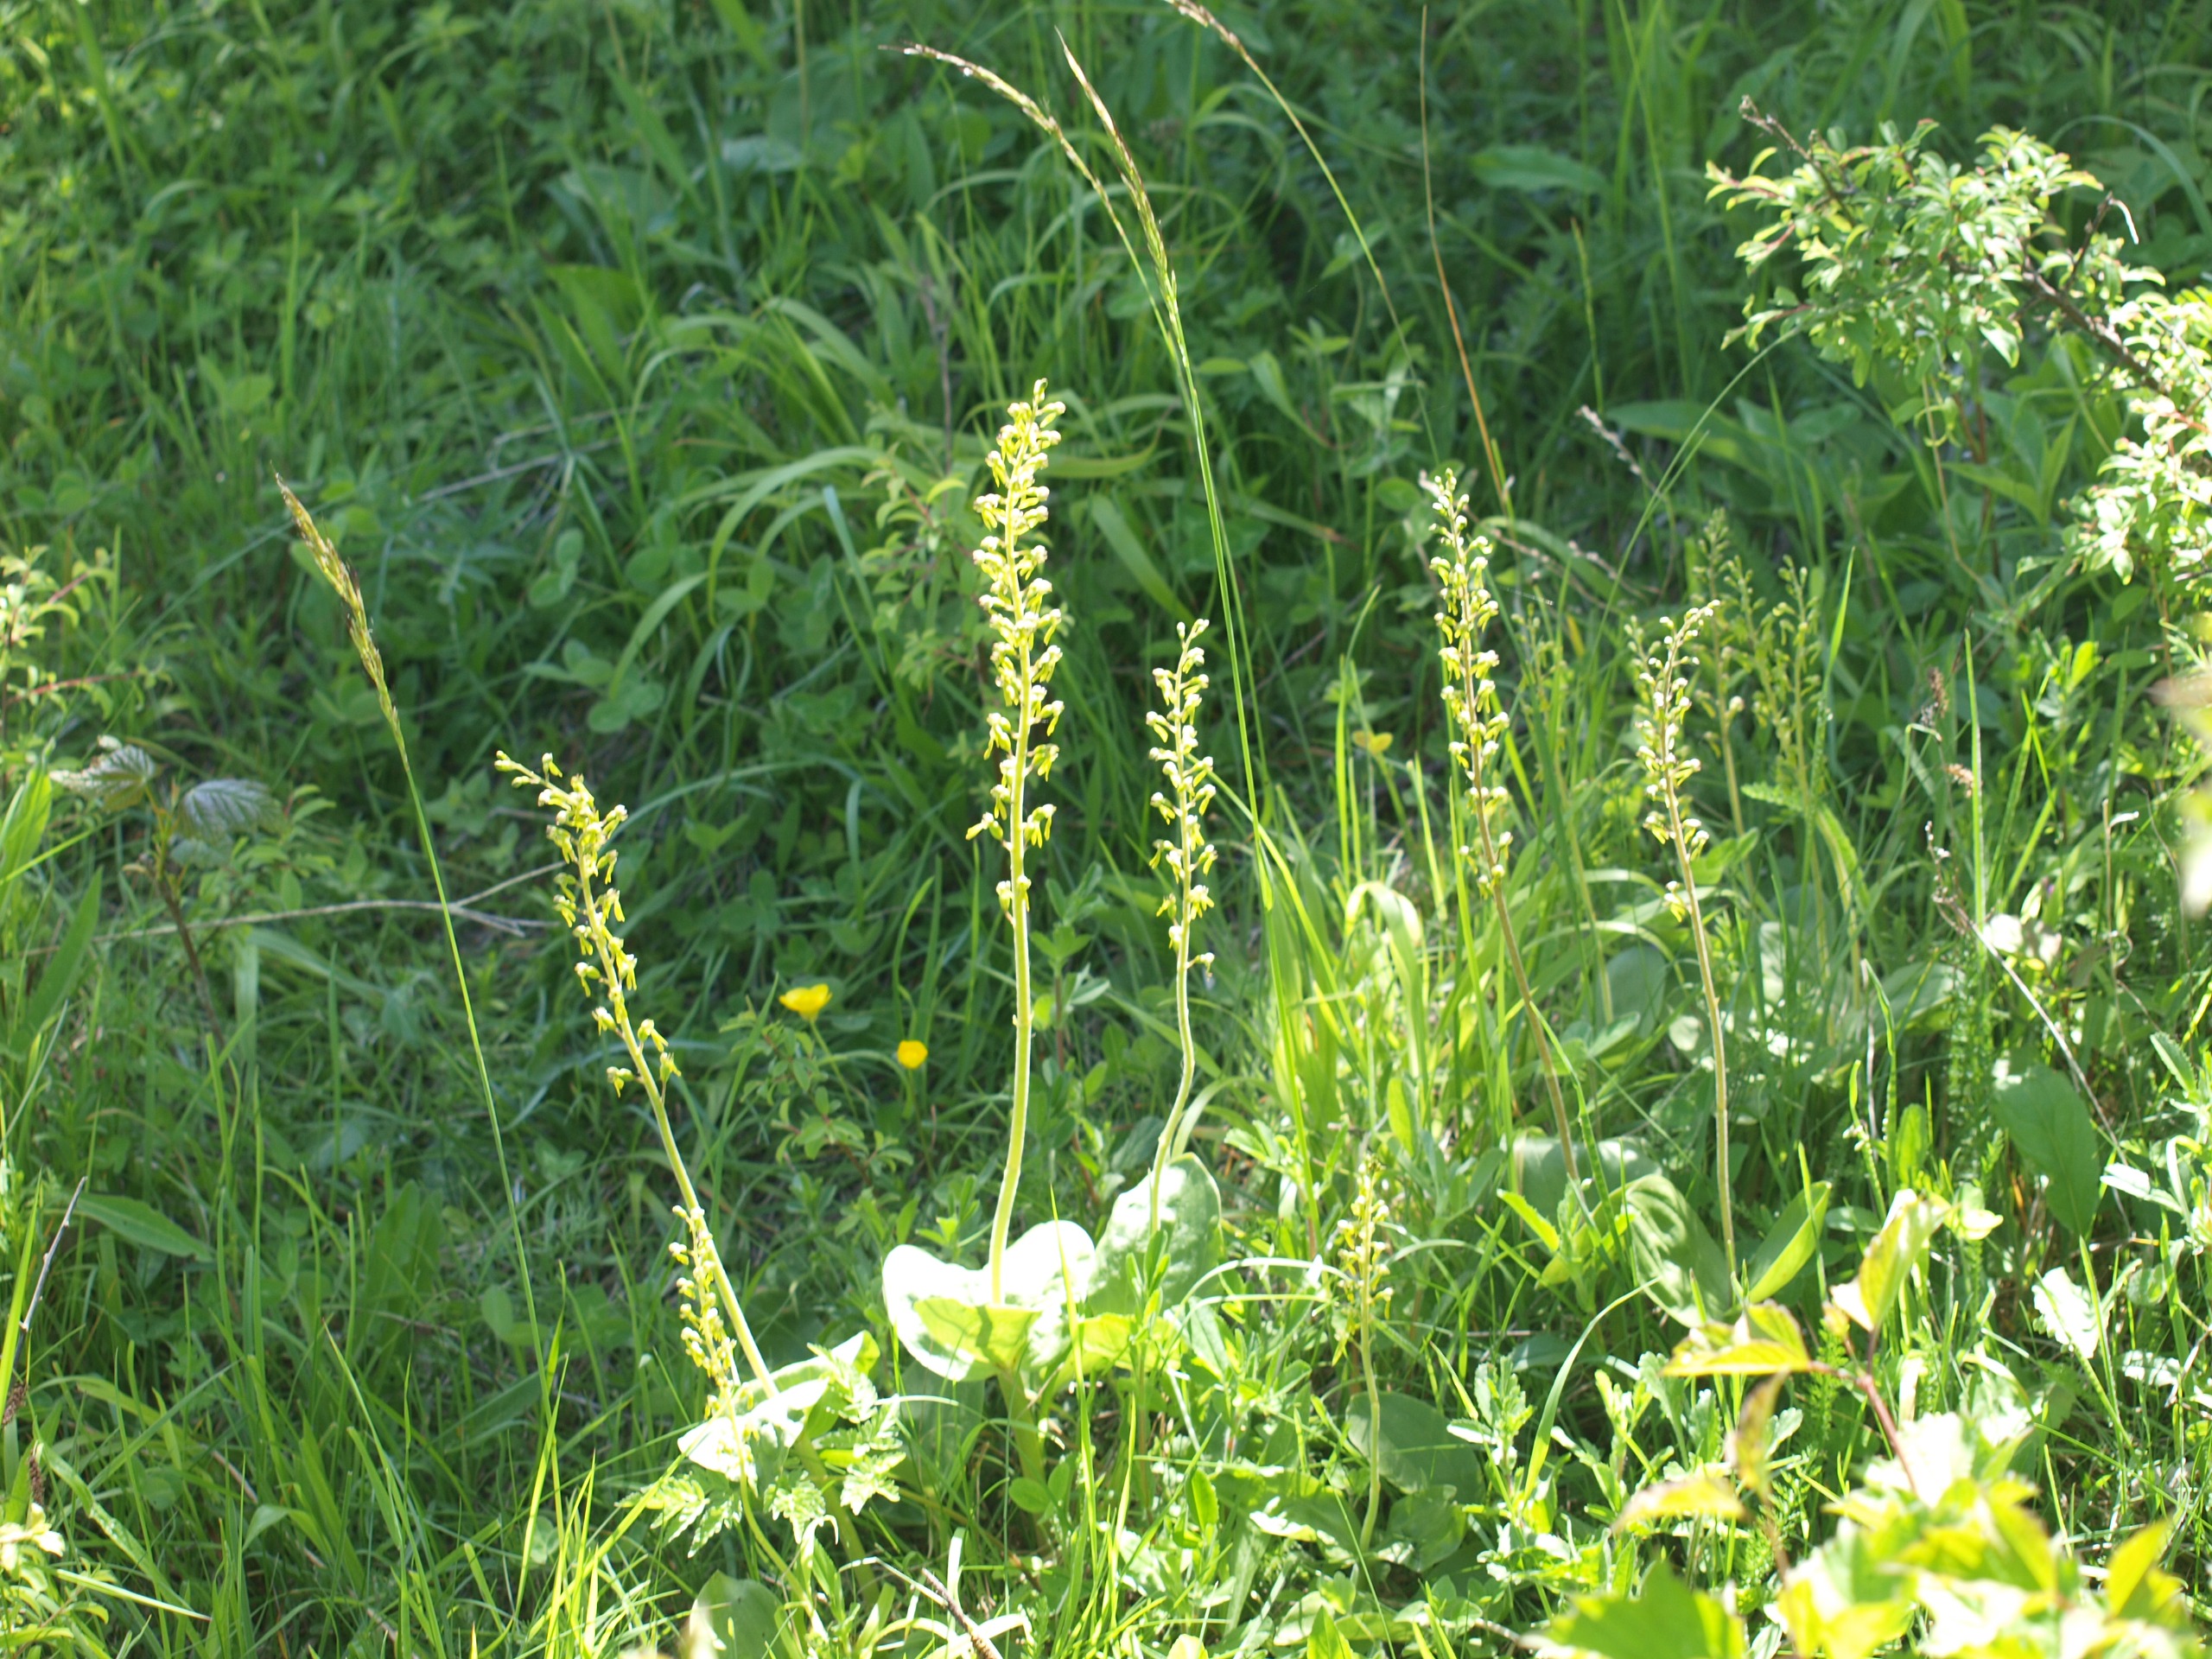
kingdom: Plantae
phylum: Tracheophyta
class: Liliopsida
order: Asparagales
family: Orchidaceae
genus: Neottia
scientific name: Neottia ovata
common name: Ægbladet fliglæbe
